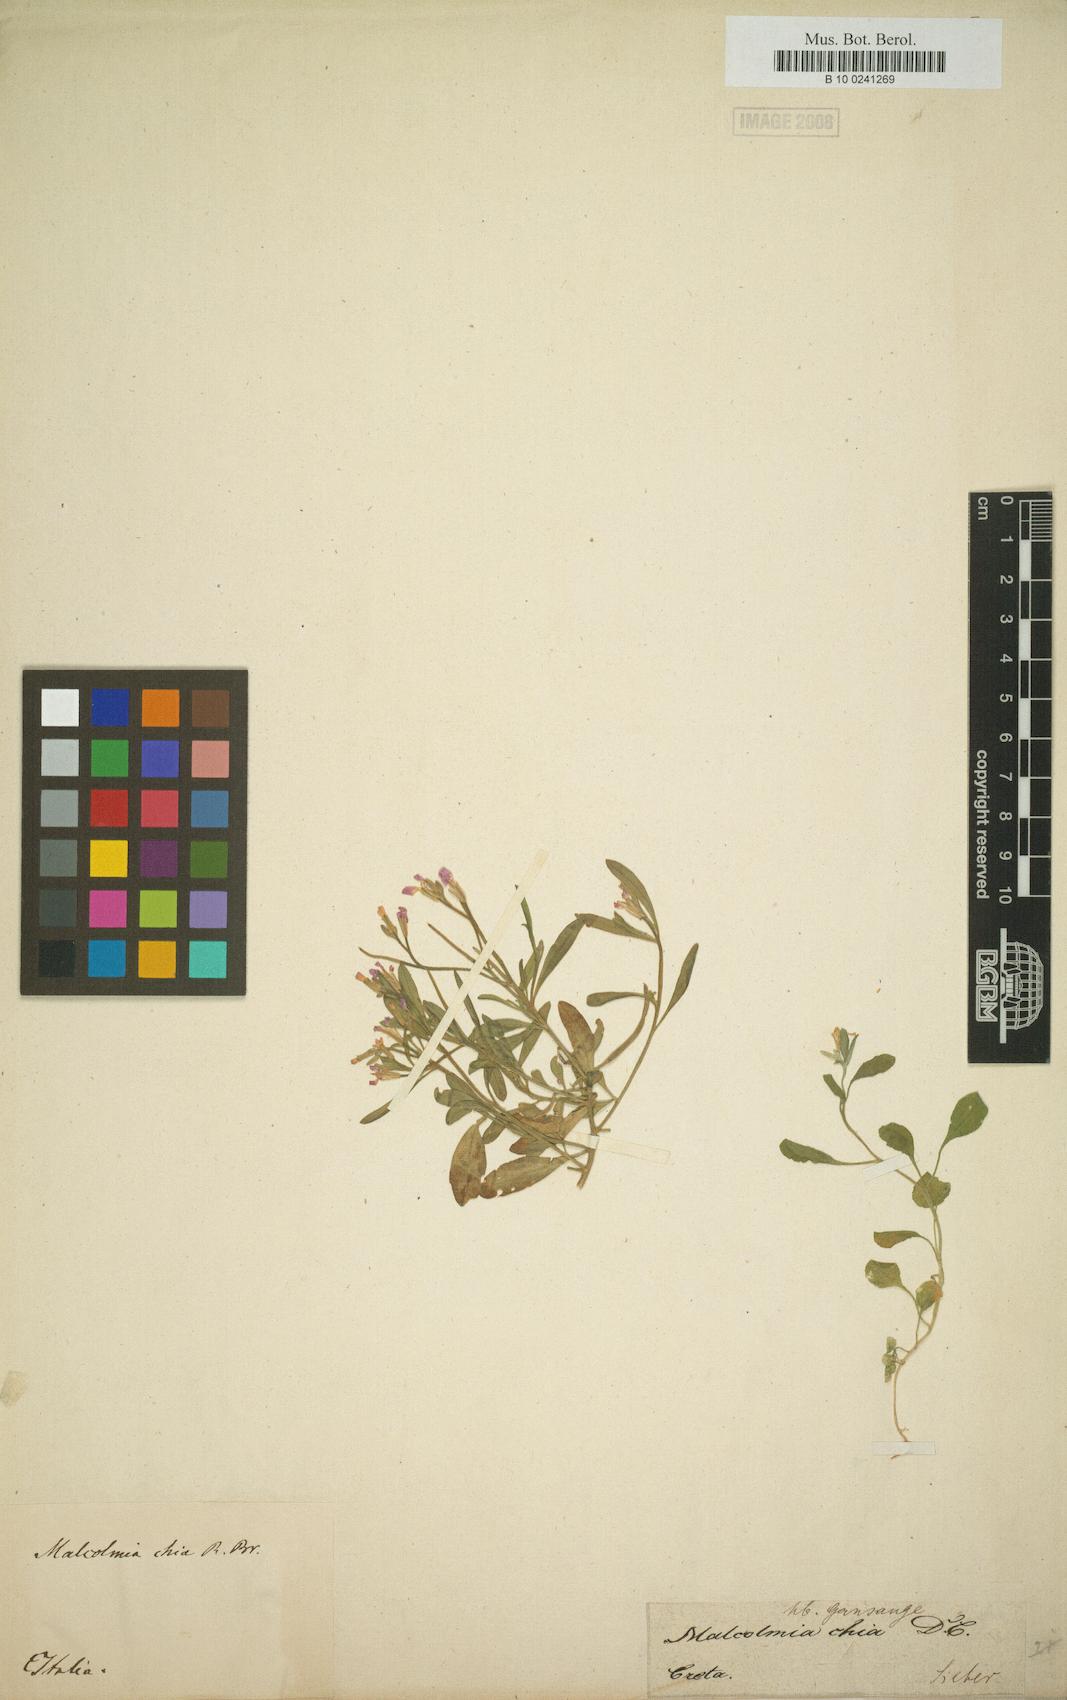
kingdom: Plantae
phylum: Tracheophyta
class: Magnoliopsida
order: Brassicales
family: Brassicaceae
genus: Malcolmia
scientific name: Malcolmia chia
